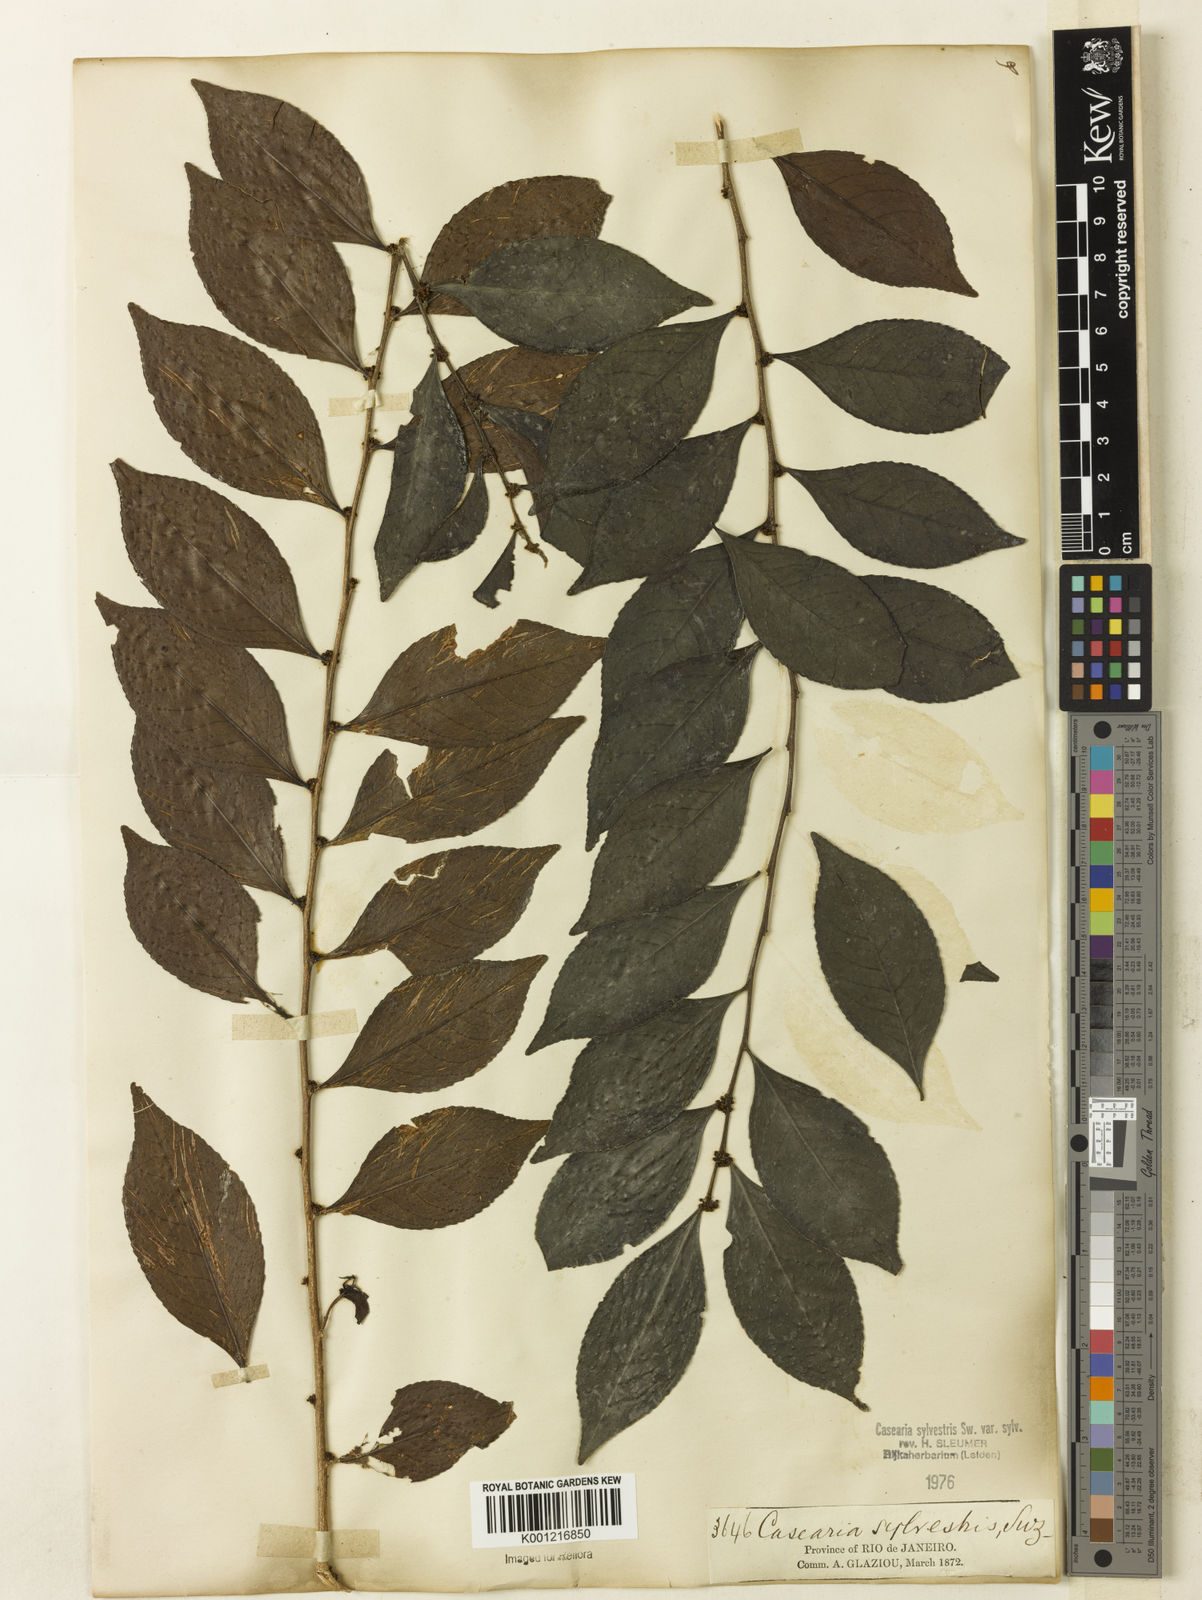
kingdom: Plantae
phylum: Tracheophyta
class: Magnoliopsida
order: Malpighiales
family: Salicaceae
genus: Casearia
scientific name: Casearia sylvestris
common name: Wild sage
